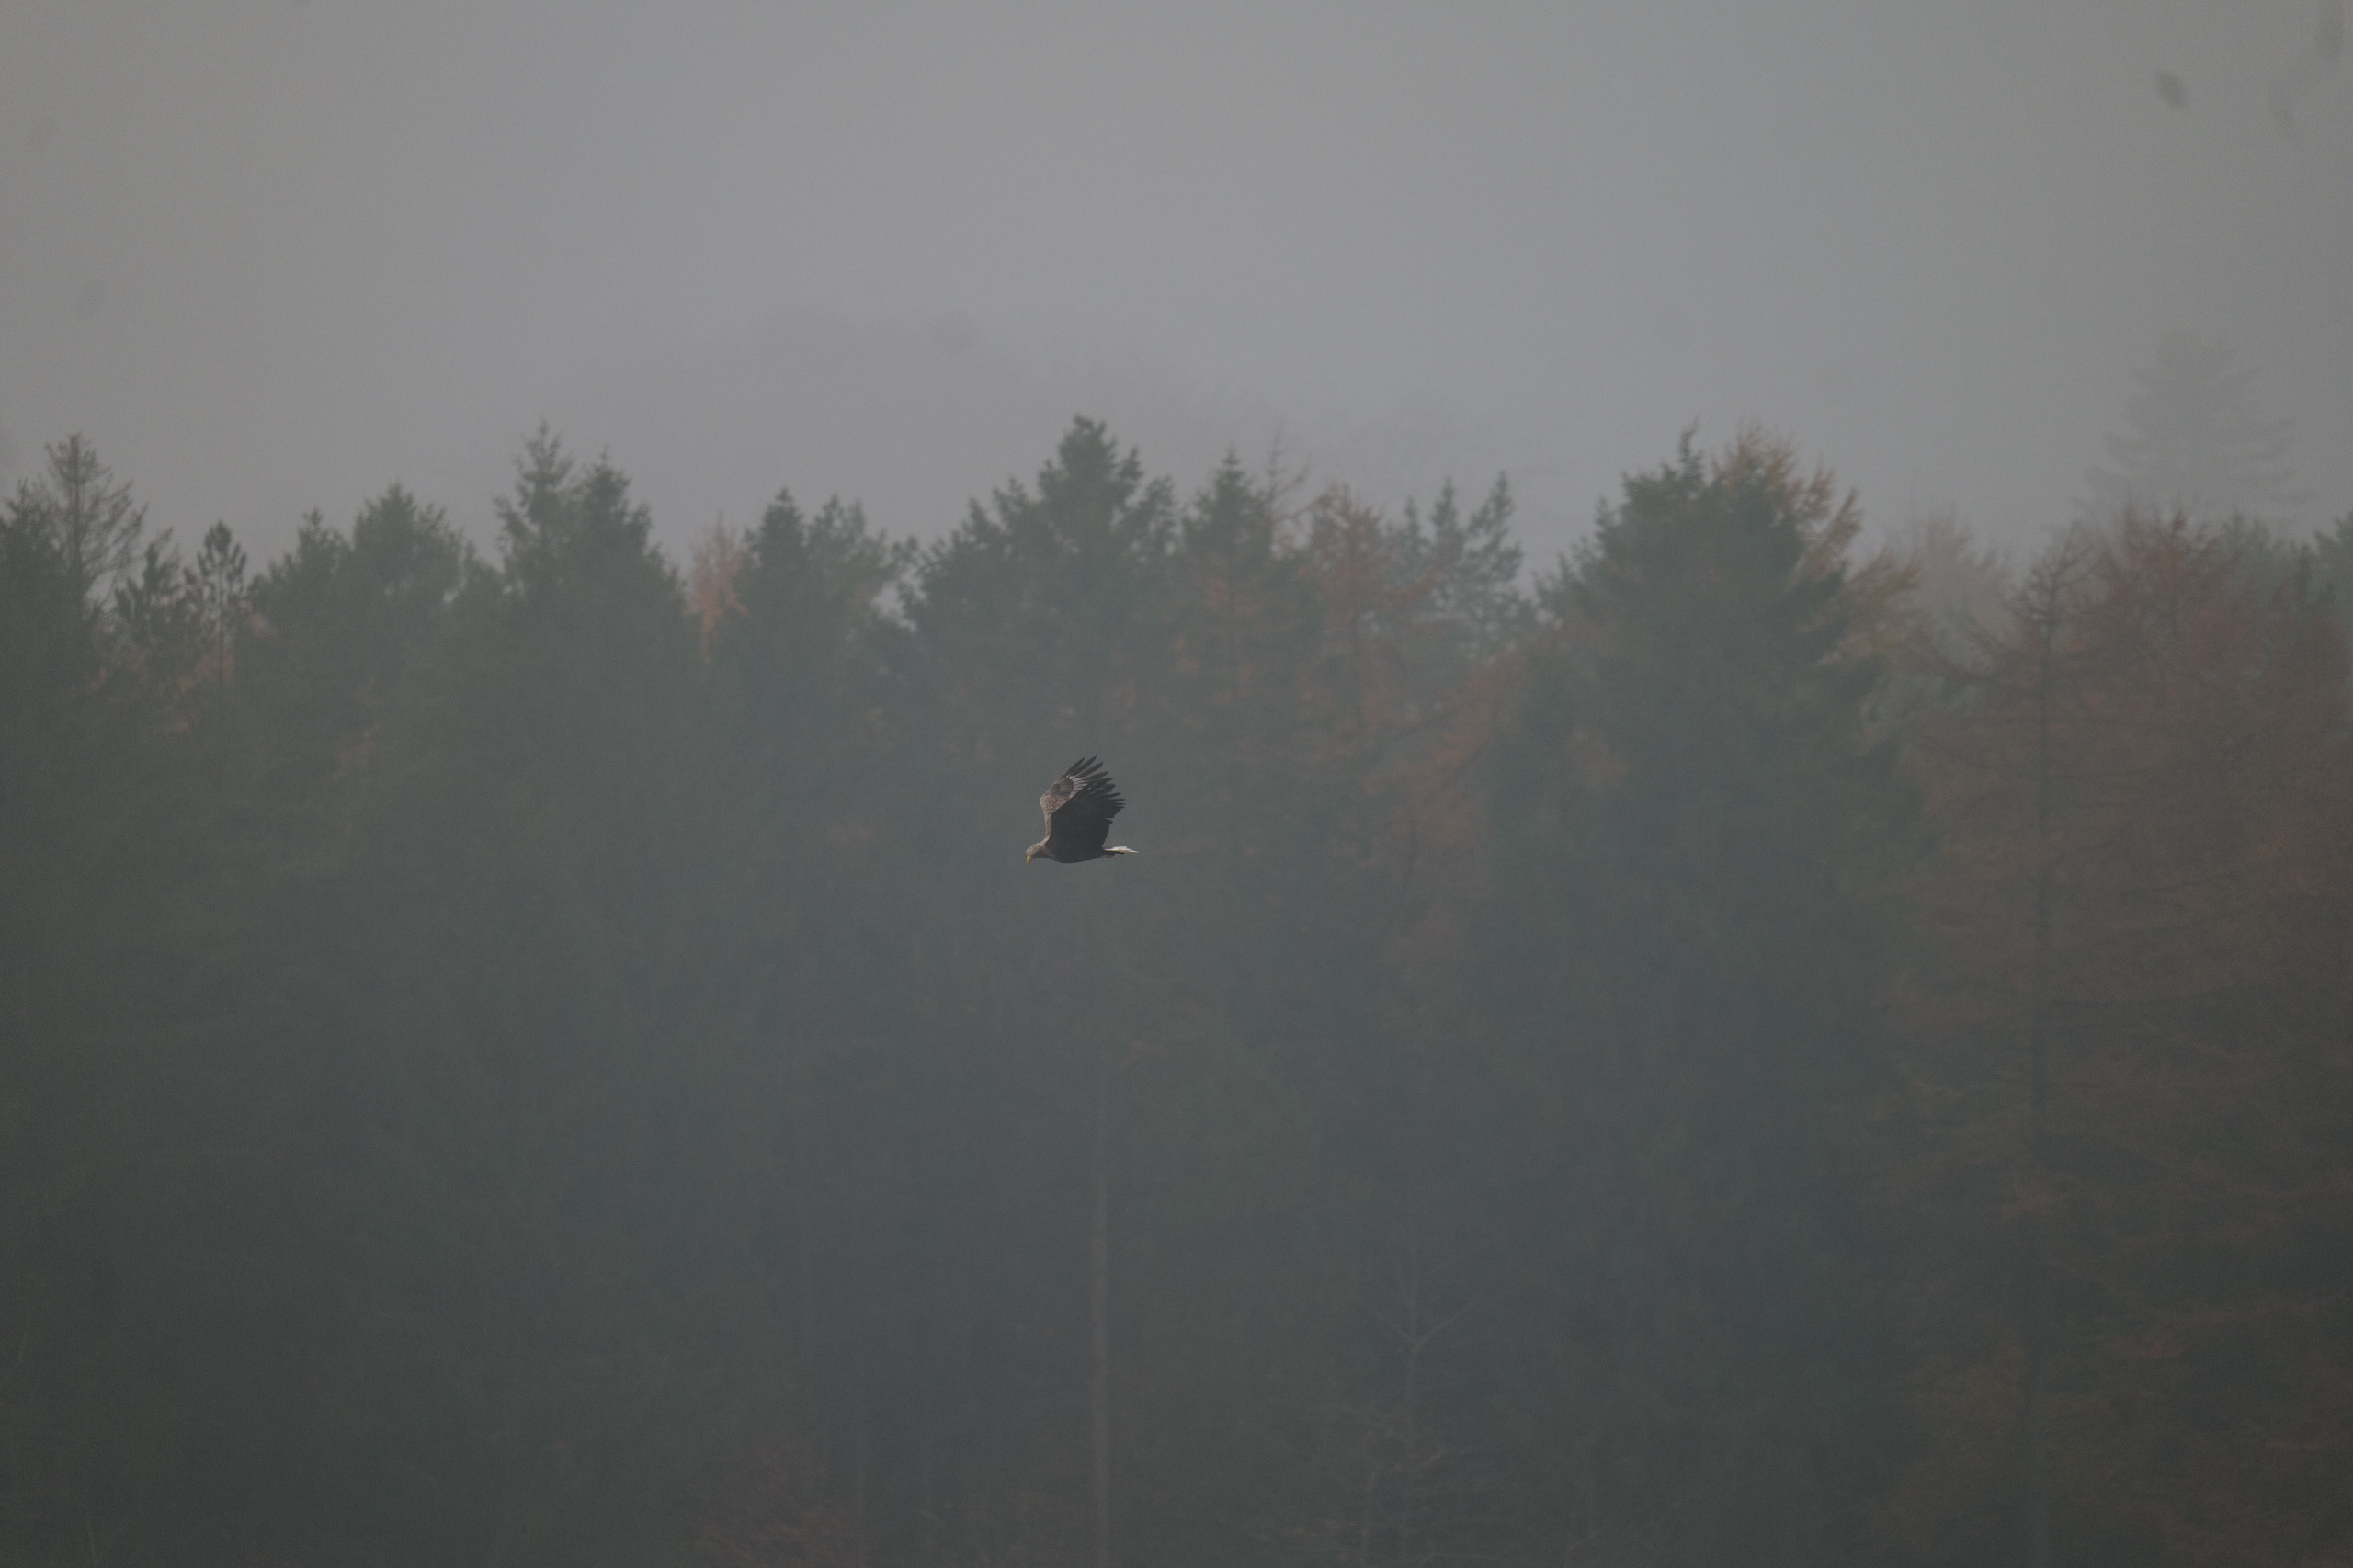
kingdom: Animalia
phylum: Chordata
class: Aves
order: Accipitriformes
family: Accipitridae
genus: Haliaeetus
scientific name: Haliaeetus albicilla
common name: Havørn
